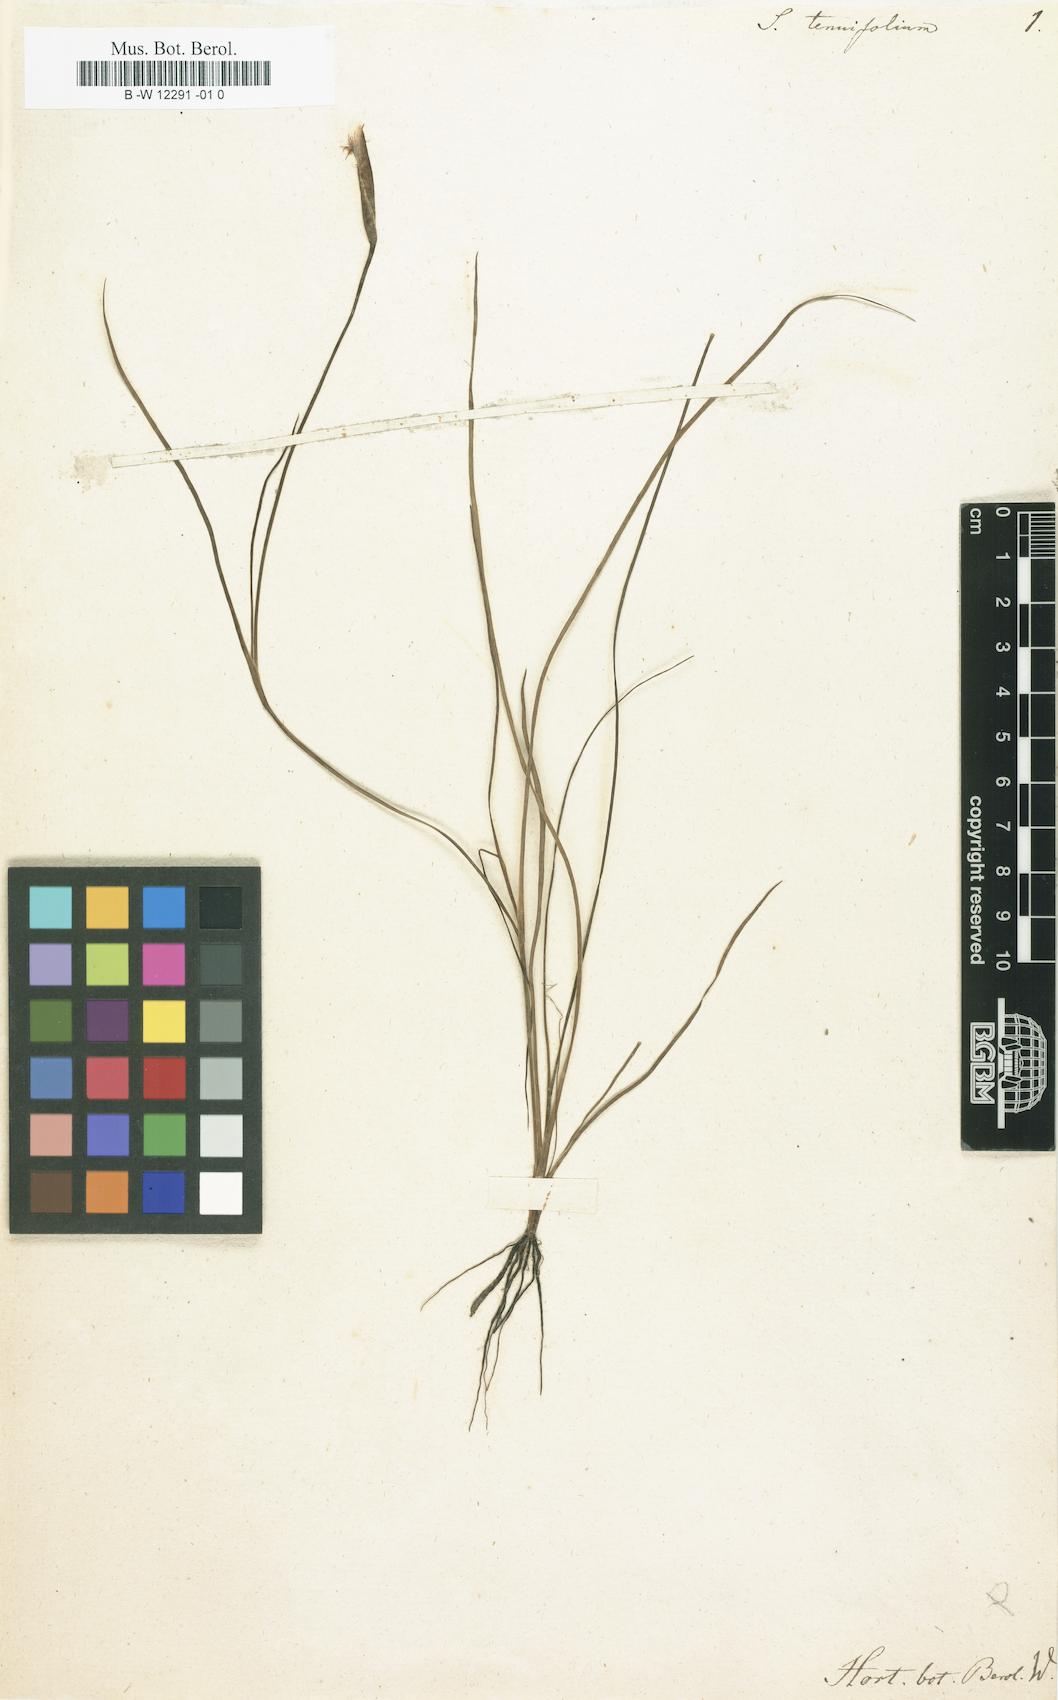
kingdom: Plantae
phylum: Tracheophyta
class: Liliopsida
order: Asparagales
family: Iridaceae
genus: Sisyrinchium
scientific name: Sisyrinchium tenuifolium
